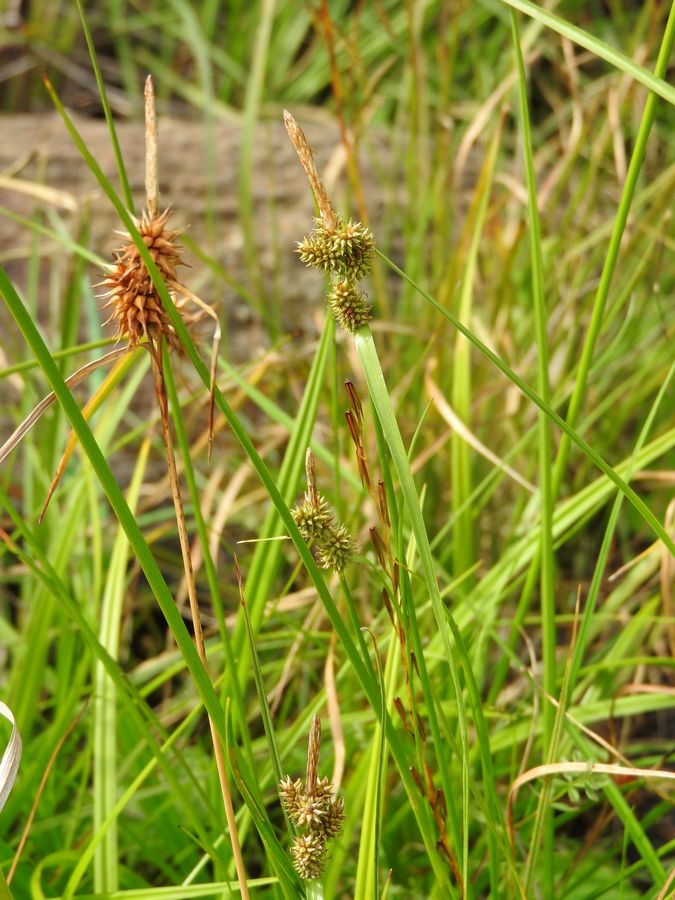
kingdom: Plantae
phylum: Tracheophyta
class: Liliopsida
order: Poales
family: Cyperaceae
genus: Carex
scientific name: Carex flava
